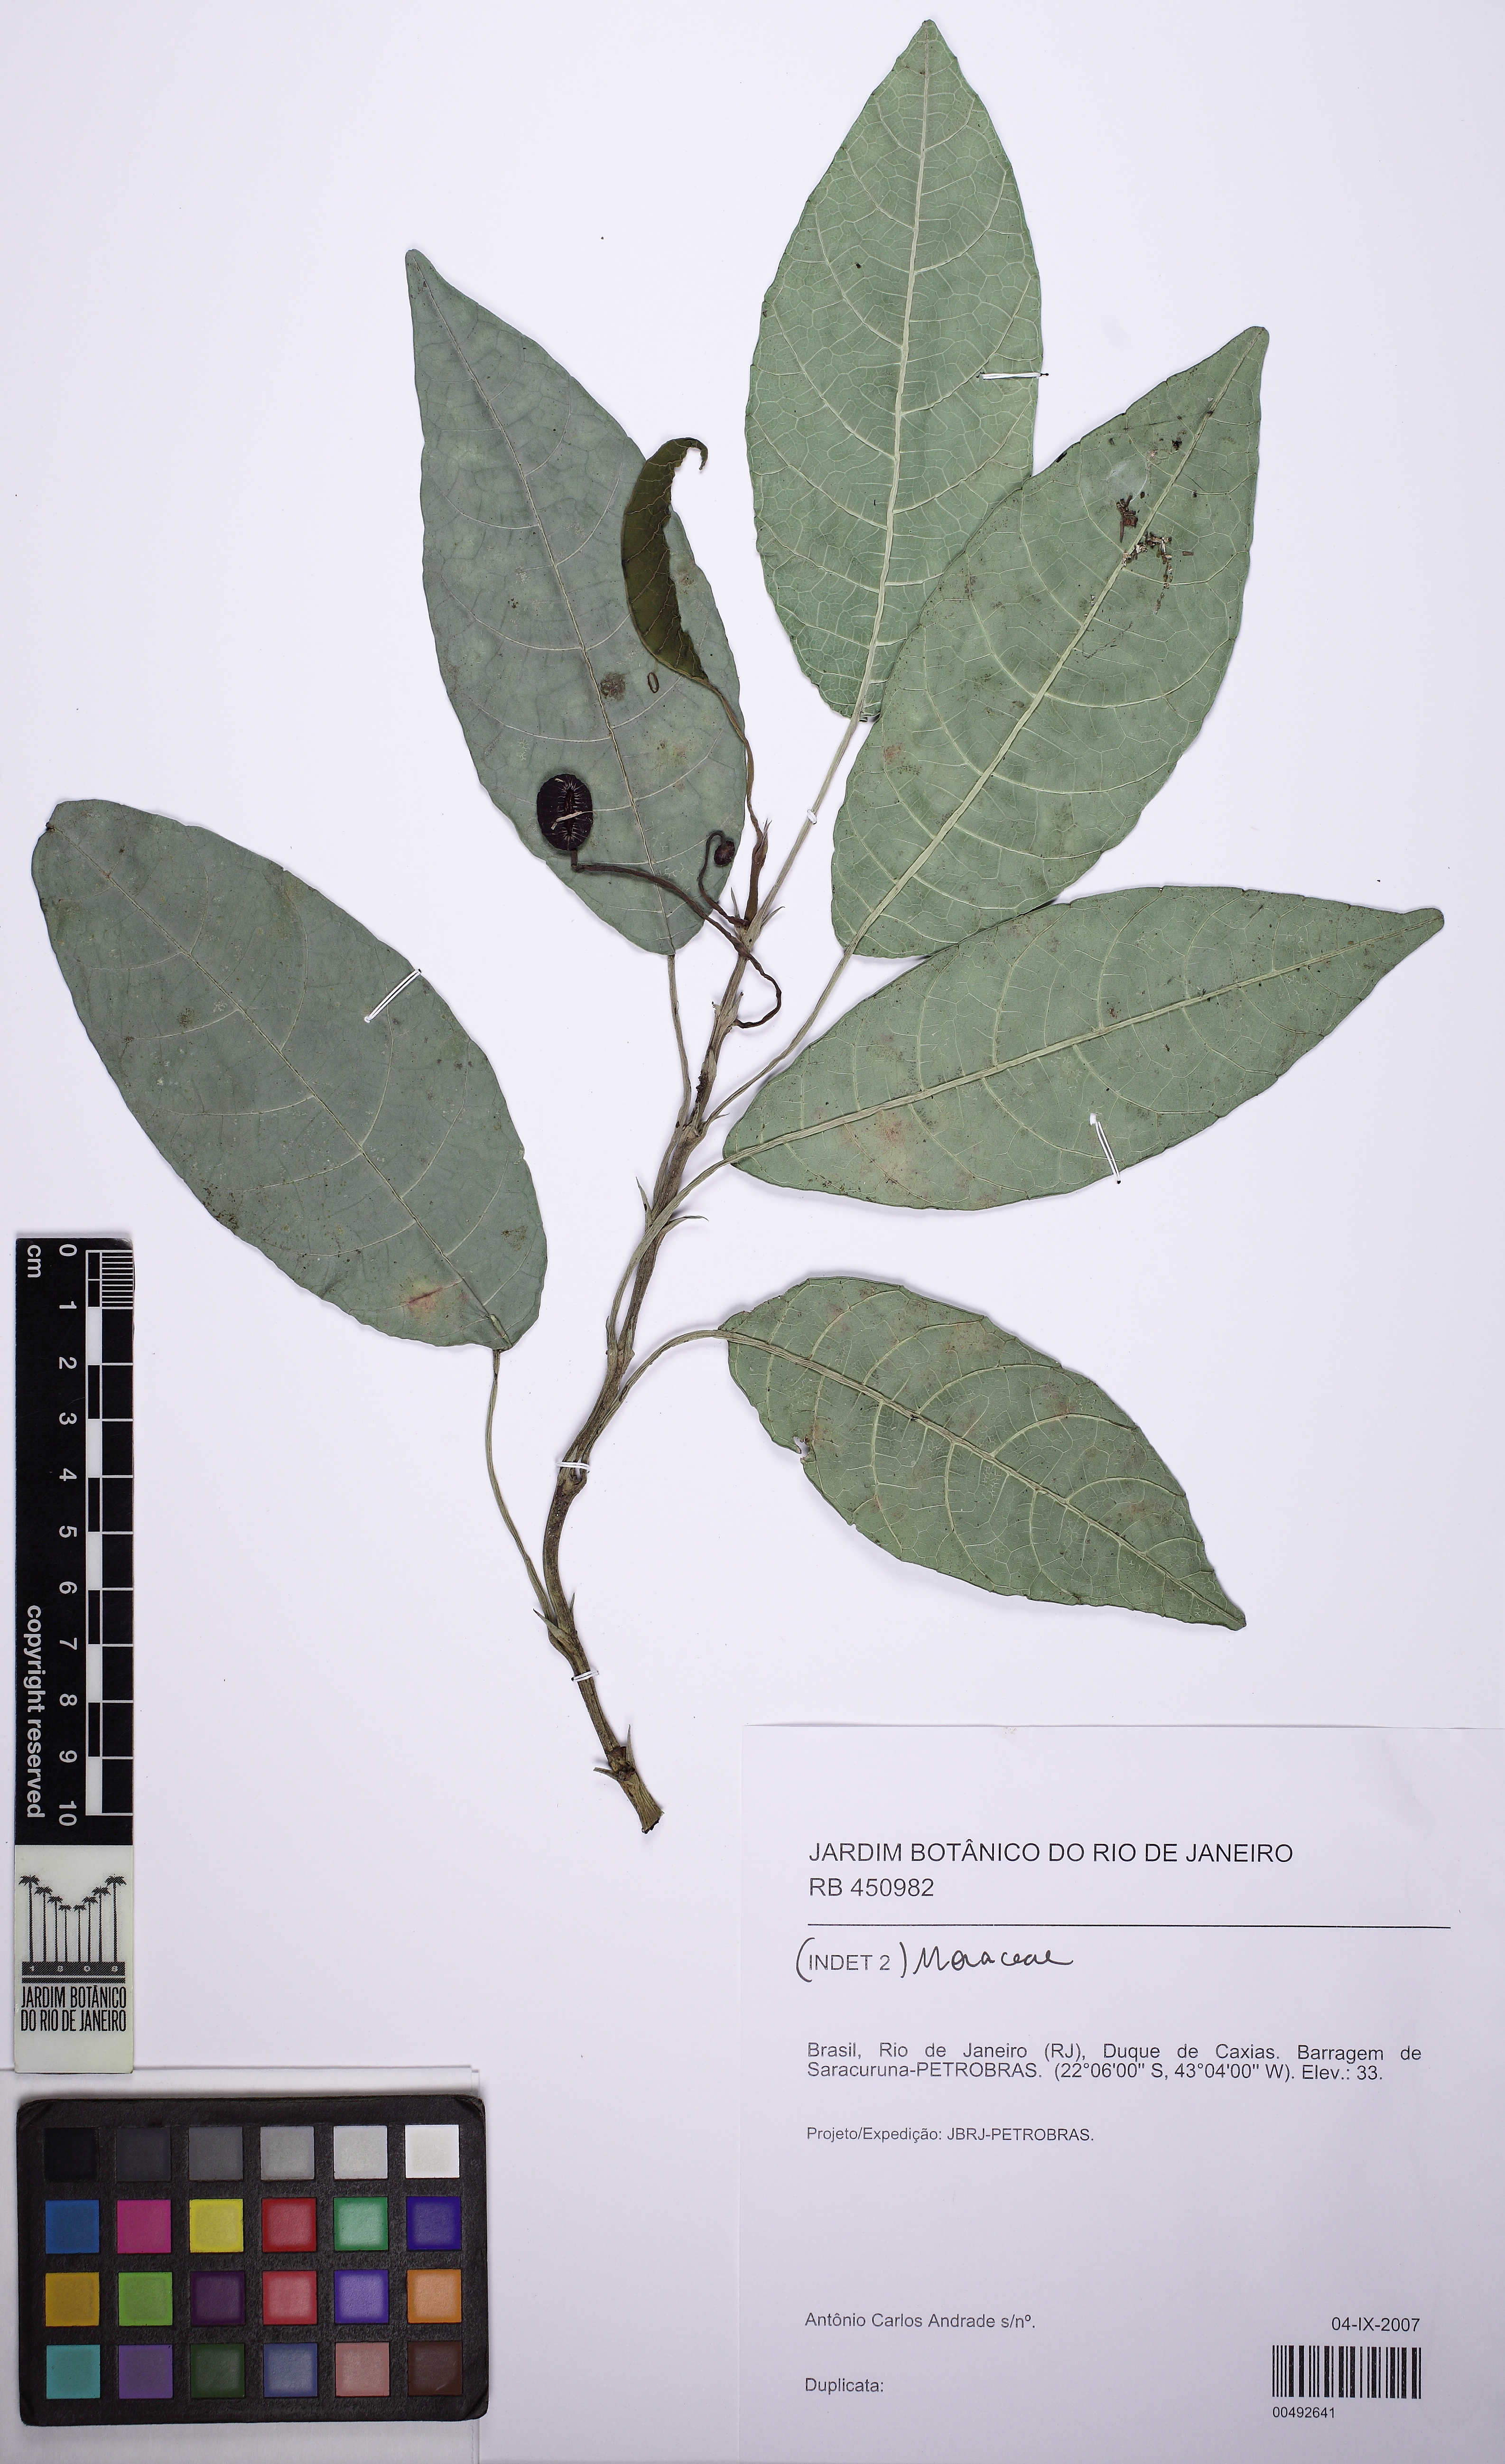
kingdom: Plantae
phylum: Tracheophyta
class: Magnoliopsida
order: Rosales
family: Moraceae
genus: Dorstenia
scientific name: Dorstenia urceolata
